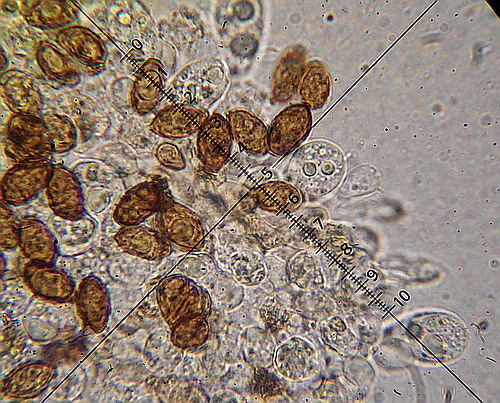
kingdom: Fungi
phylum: Basidiomycota
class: Agaricomycetes
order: Agaricales
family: Bolbitiaceae
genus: Panaeolina
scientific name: Panaeolina foenisecii
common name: høslætsvamp
